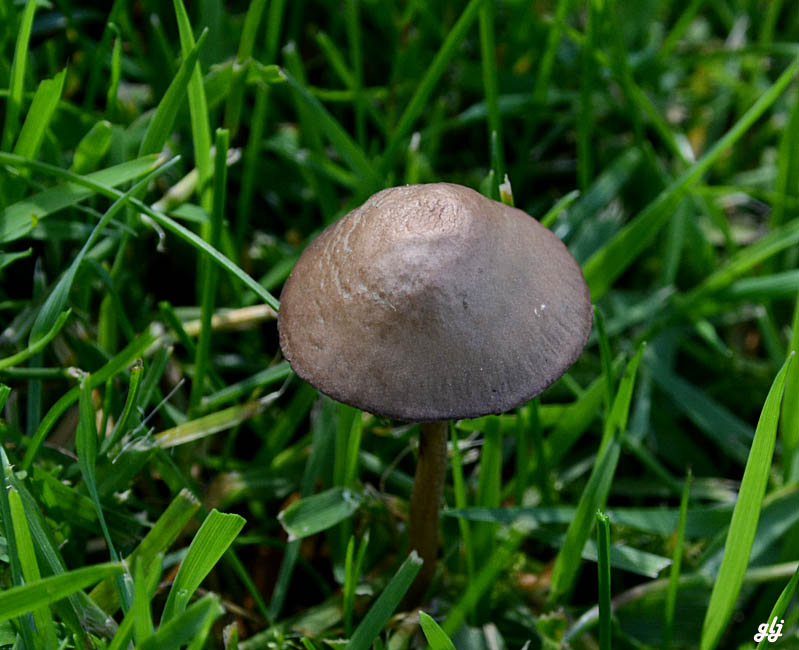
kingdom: Fungi
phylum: Basidiomycota
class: Agaricomycetes
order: Agaricales
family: Bolbitiaceae
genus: Panaeolina
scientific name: Panaeolina foenisecii
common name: høslætsvamp
